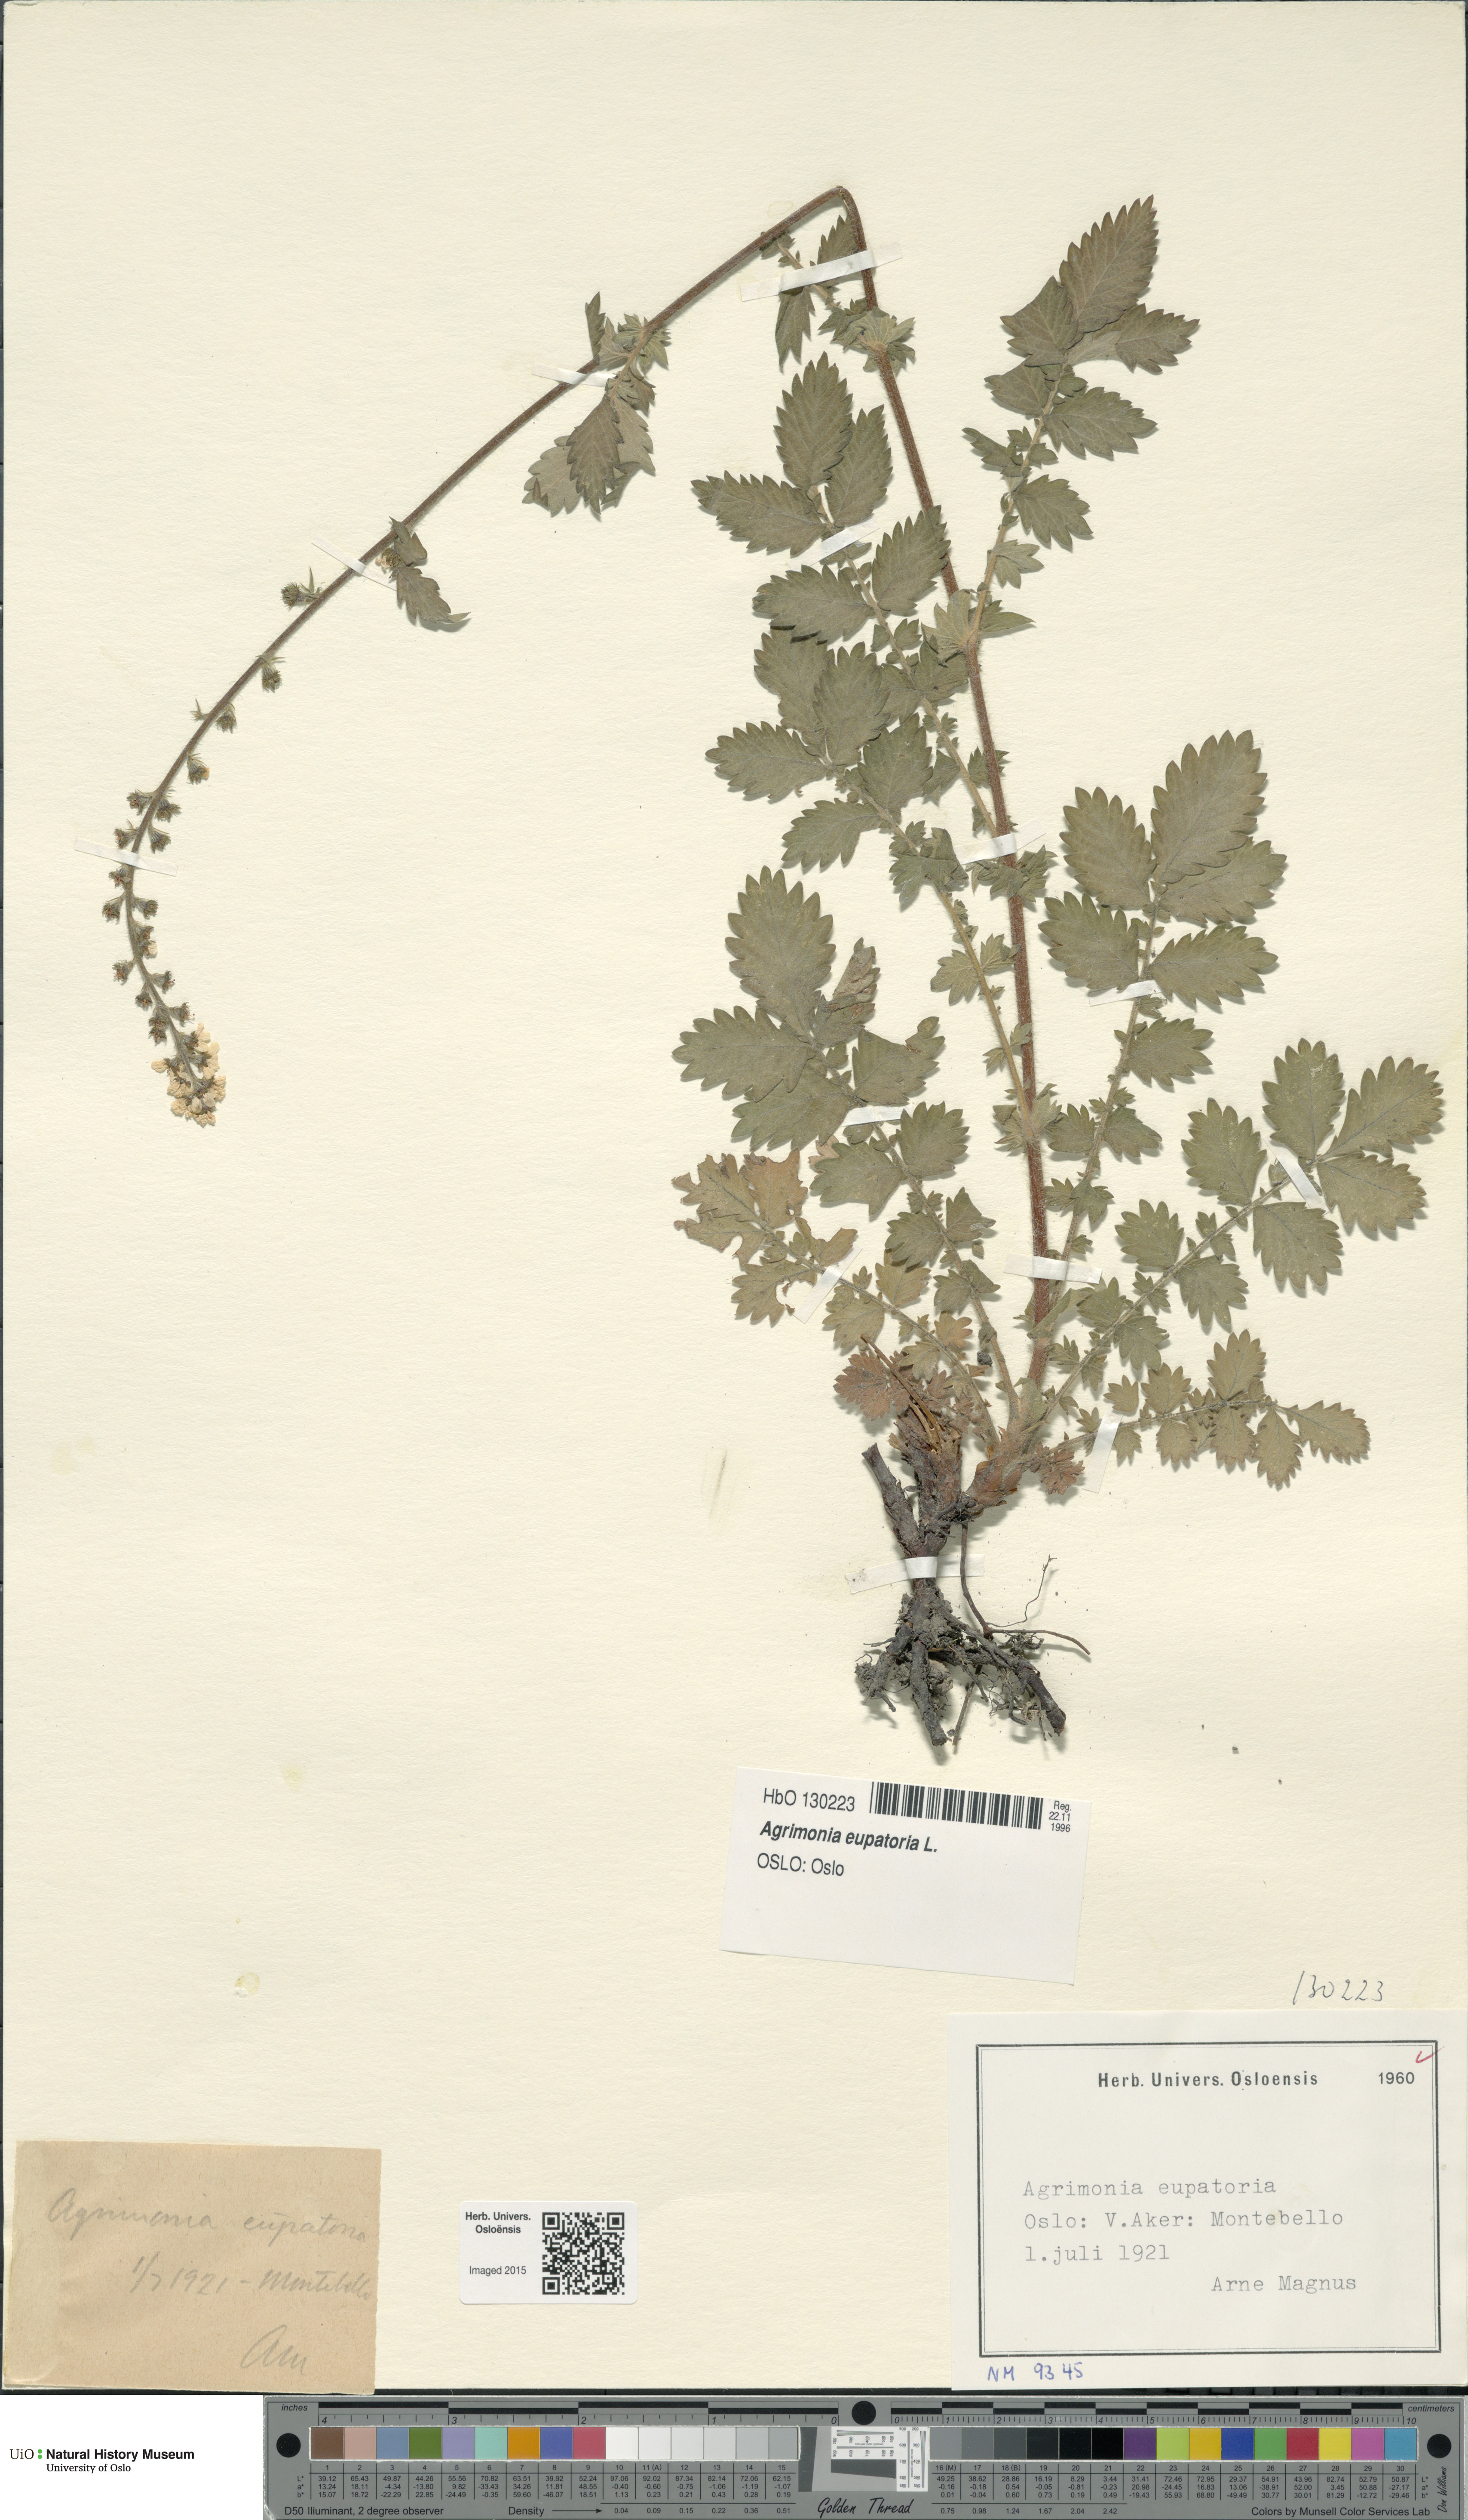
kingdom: Plantae
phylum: Tracheophyta
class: Magnoliopsida
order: Rosales
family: Rosaceae
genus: Agrimonia
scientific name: Agrimonia eupatoria
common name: Agrimony
